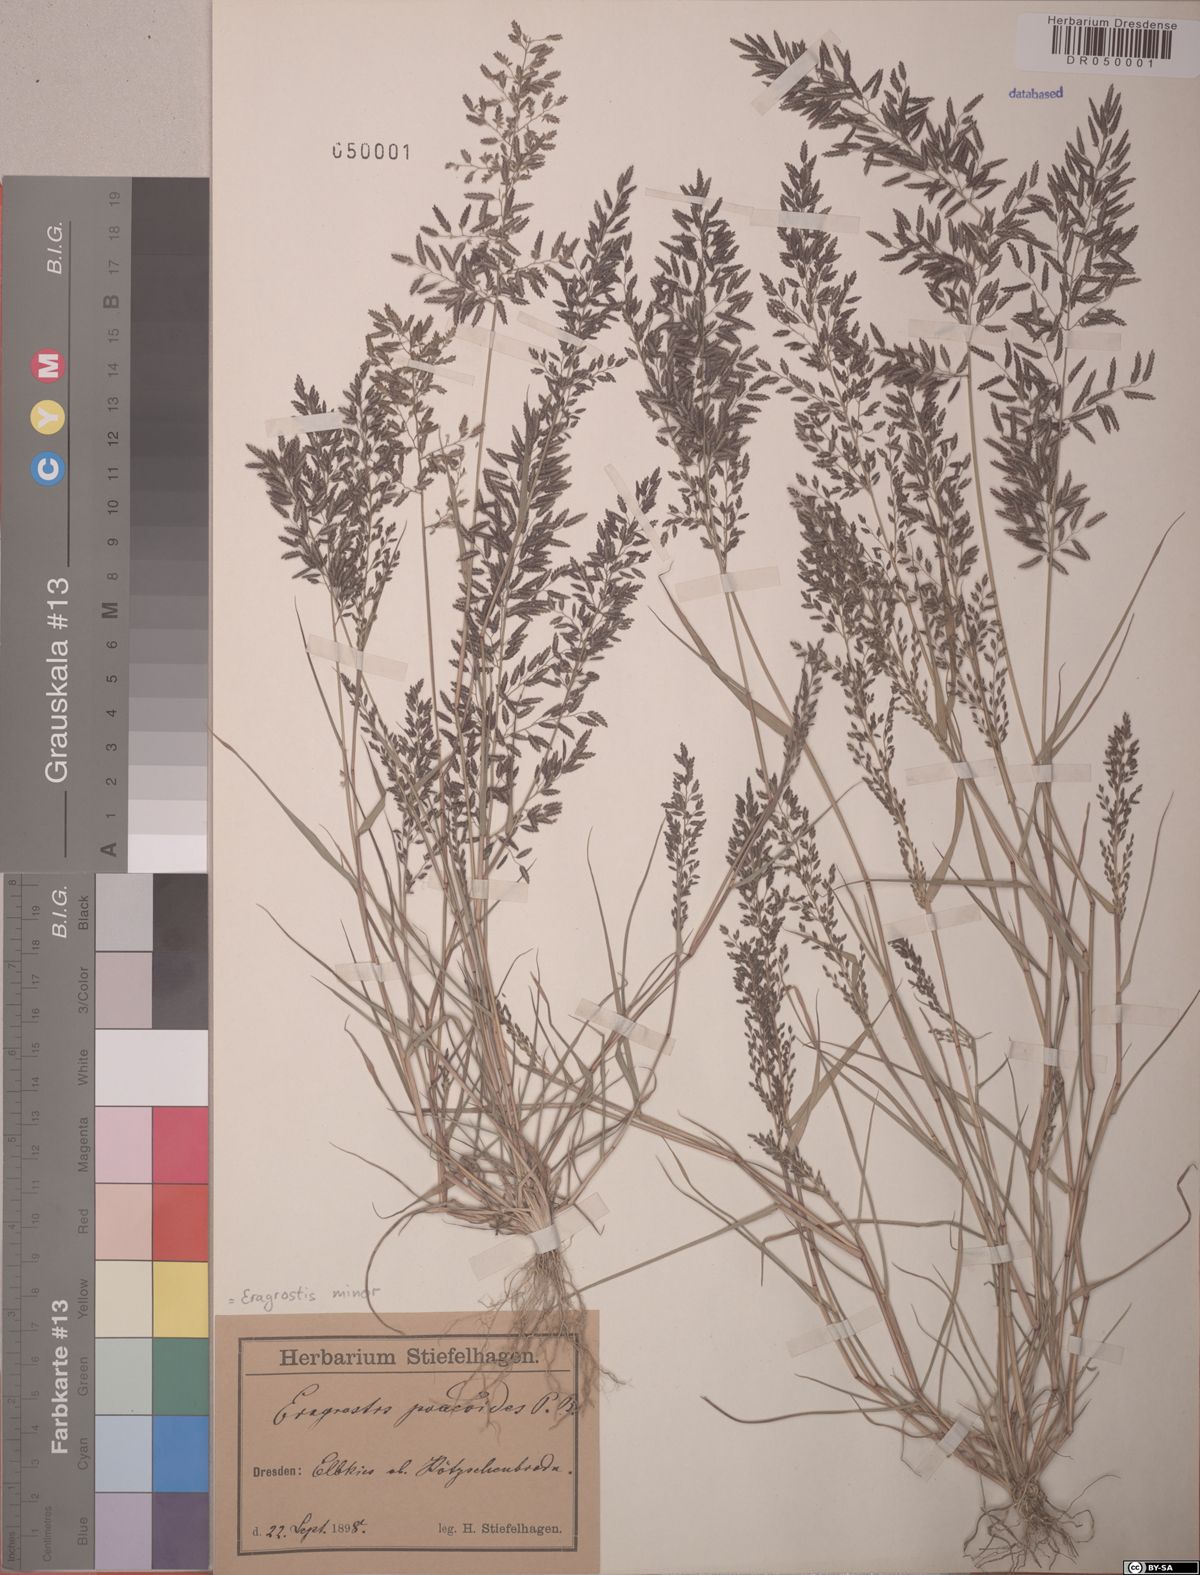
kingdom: Plantae
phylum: Tracheophyta
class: Liliopsida
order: Poales
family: Poaceae
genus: Eragrostis
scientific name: Eragrostis minor
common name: Small love-grass
